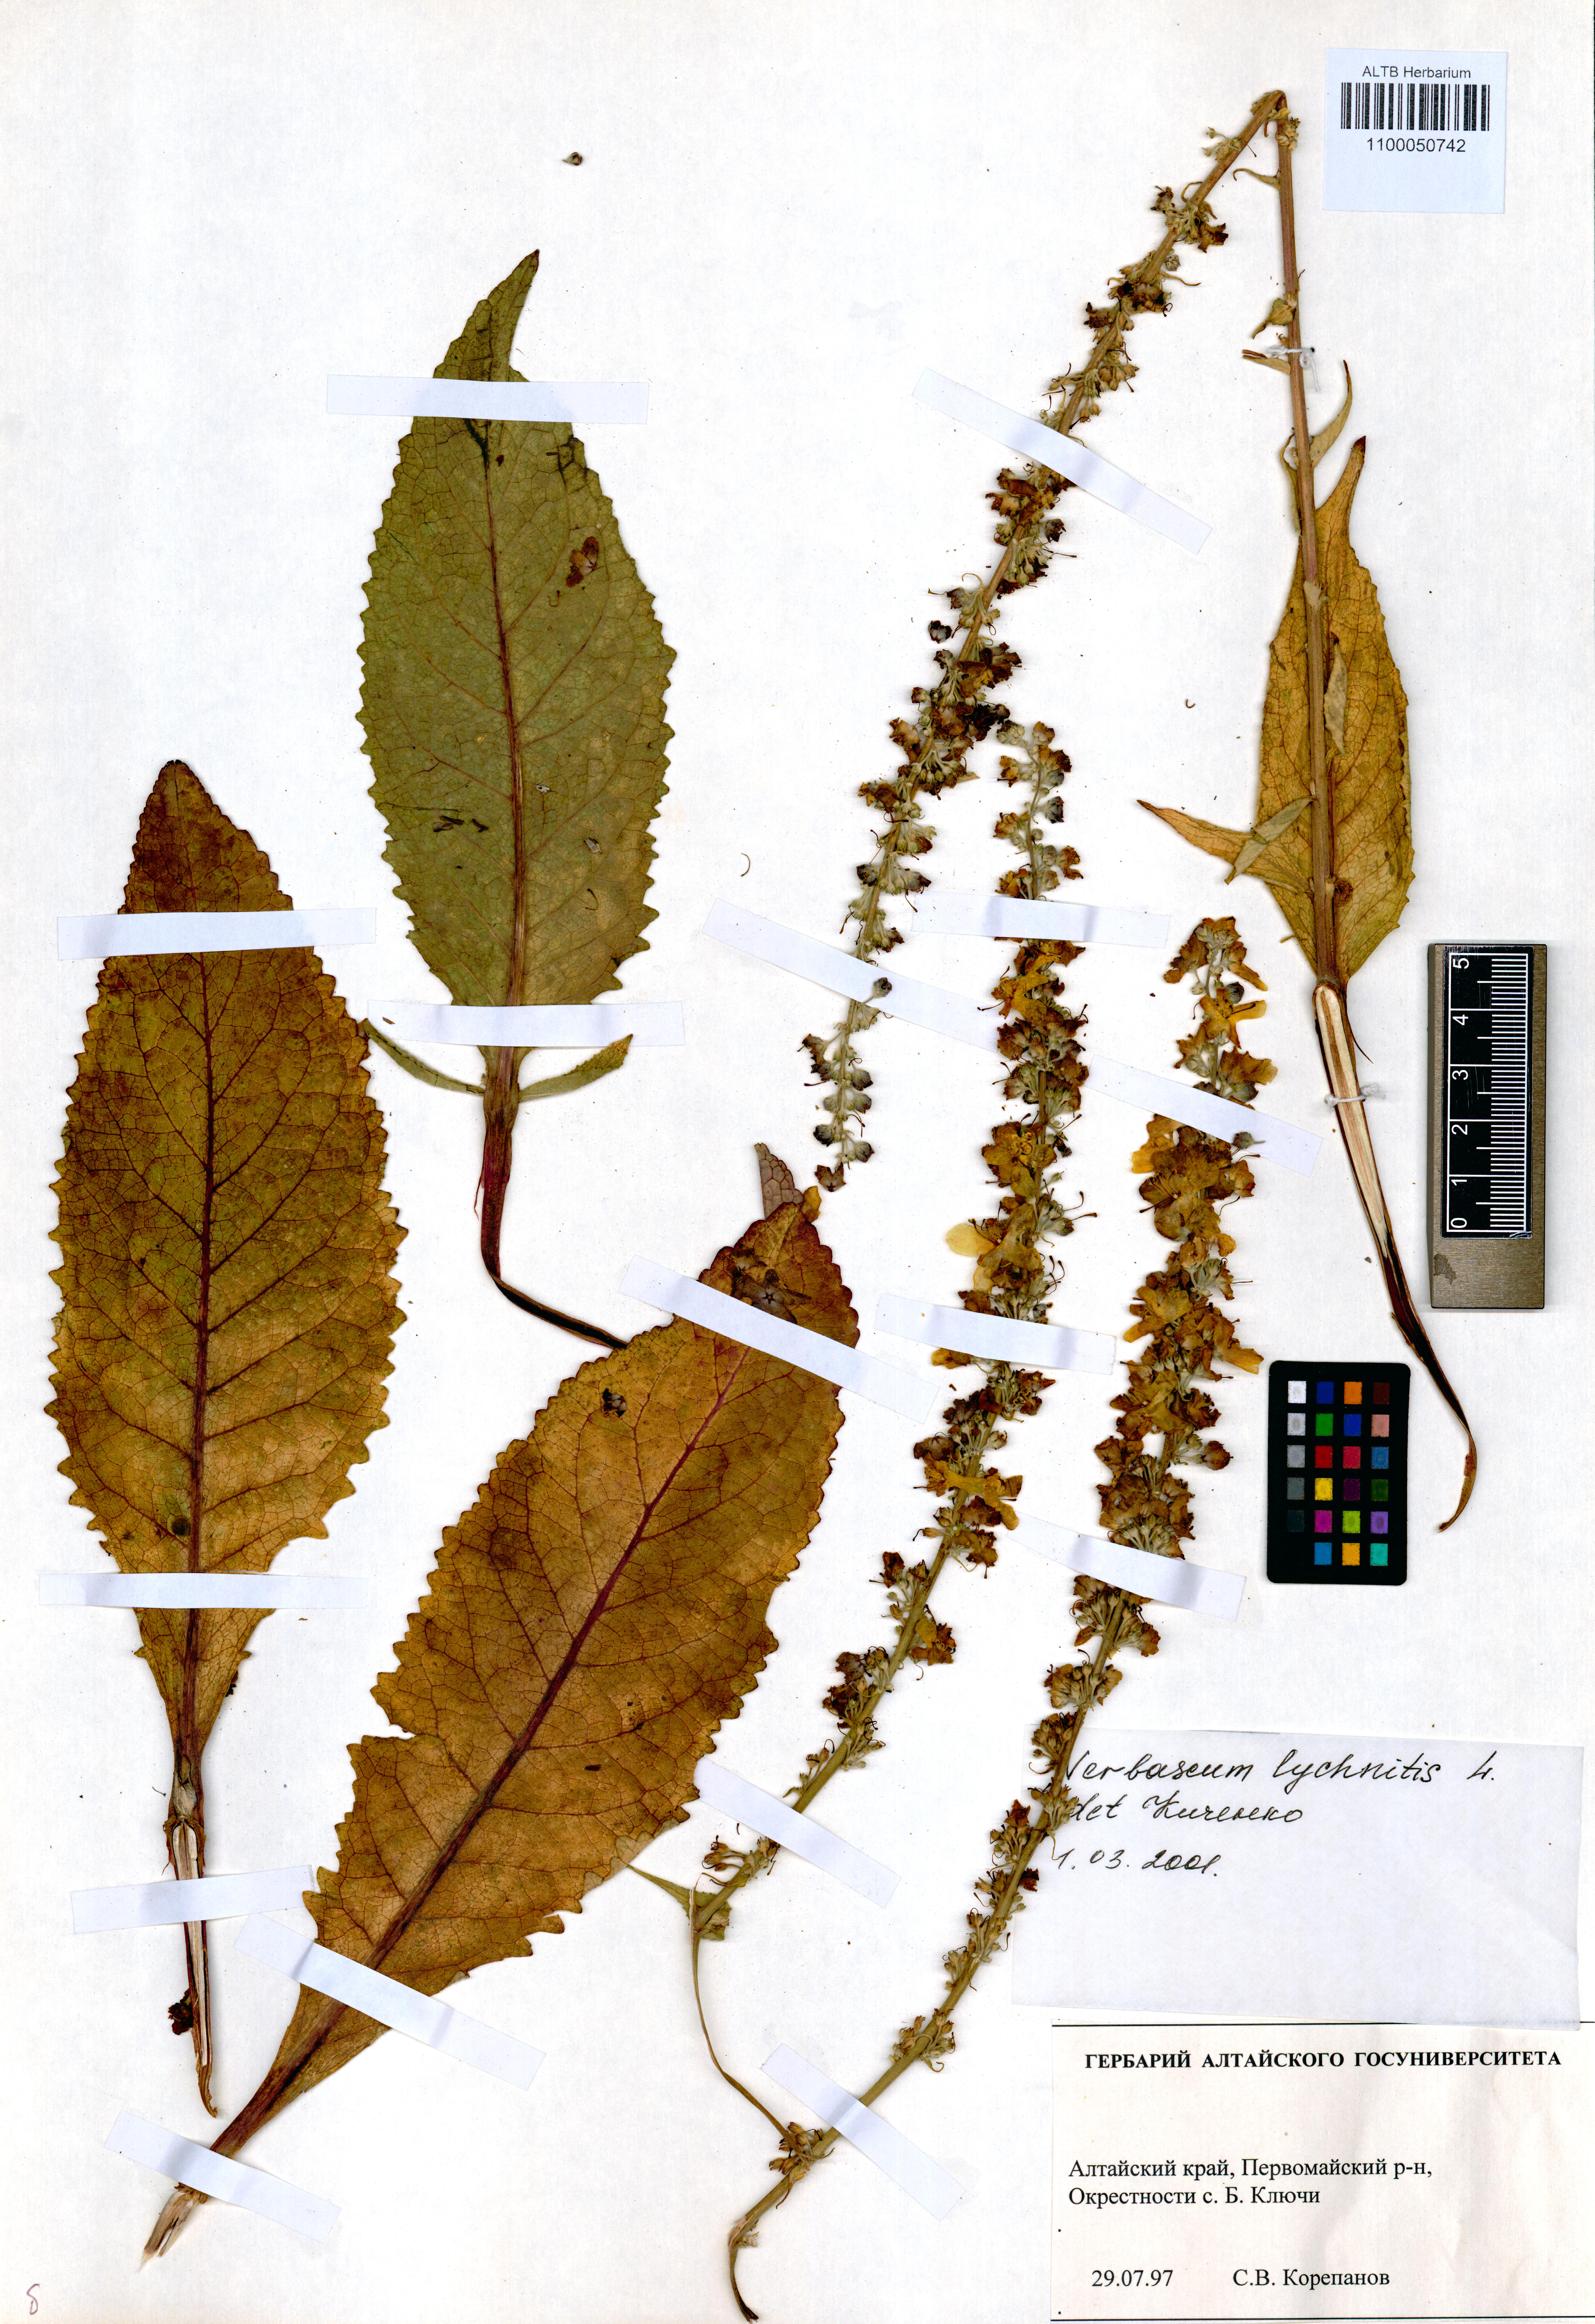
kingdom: Plantae
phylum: Tracheophyta
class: Magnoliopsida
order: Lamiales
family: Scrophulariaceae
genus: Verbascum
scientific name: Verbascum lychnitis
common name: White mullein
